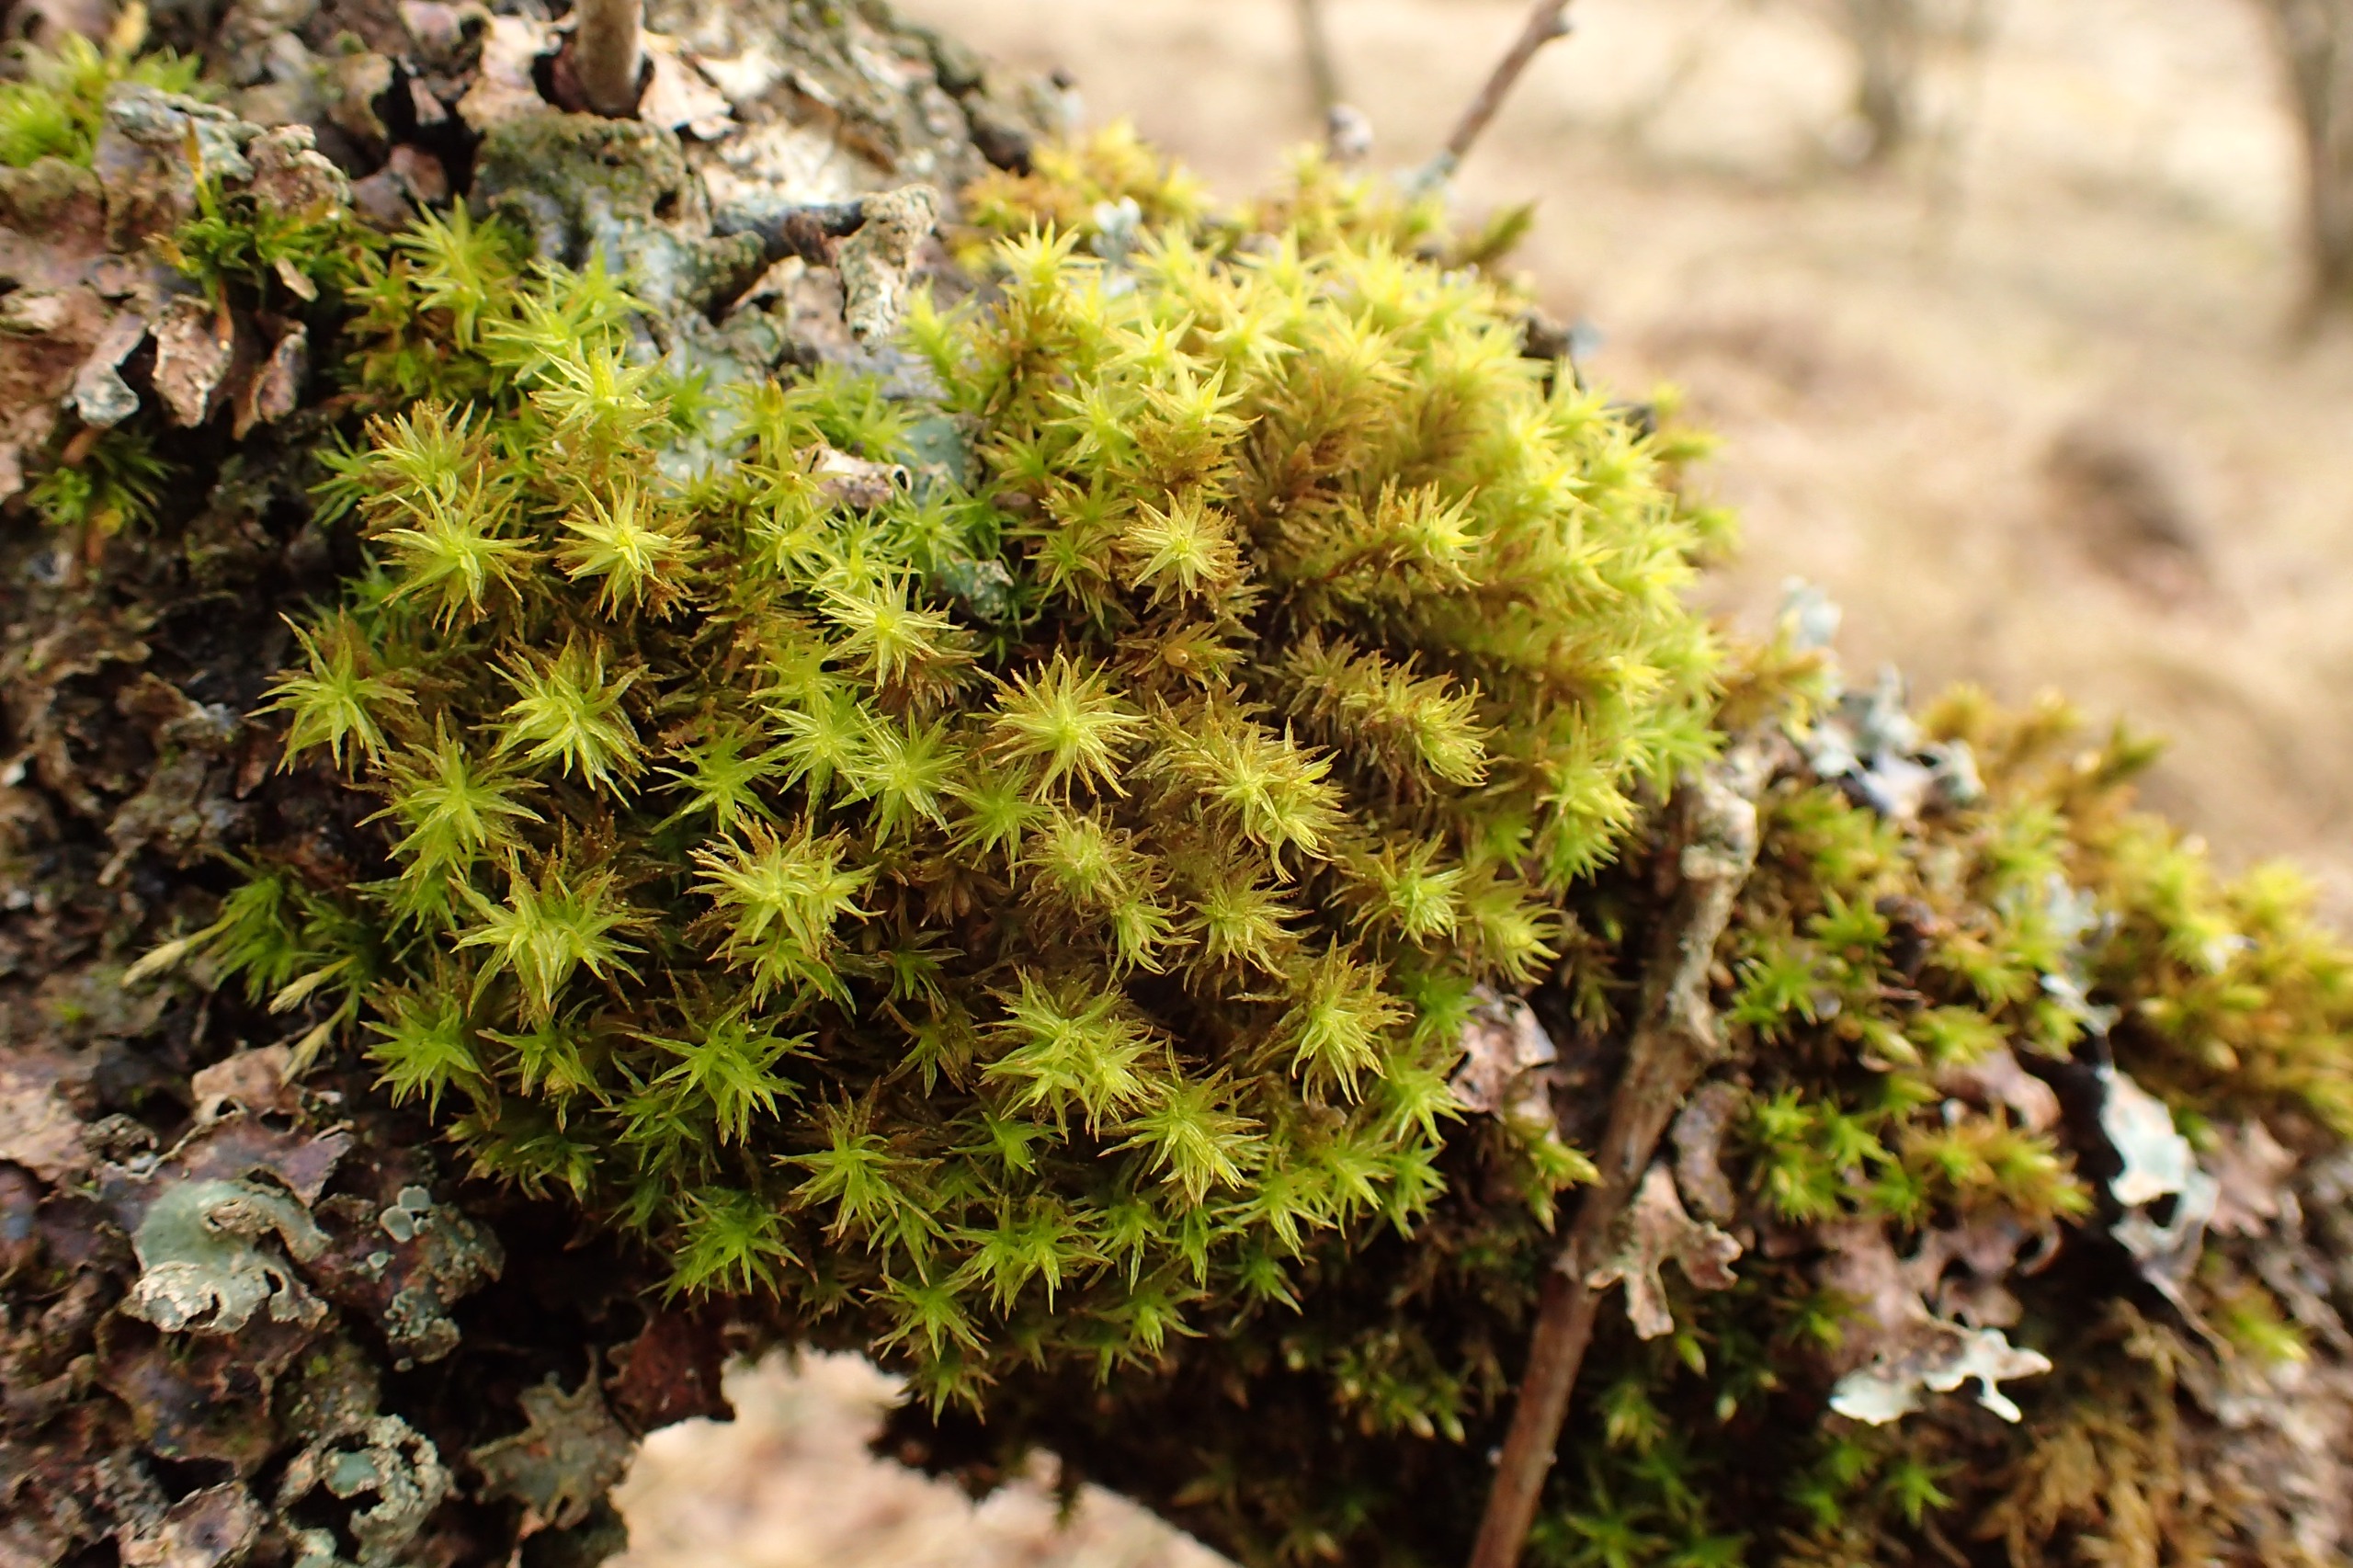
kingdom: Plantae
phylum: Bryophyta
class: Bryopsida
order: Orthotrichales
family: Orthotrichaceae
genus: Pulvigera
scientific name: Pulvigera lyellii
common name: Stor furehætte
